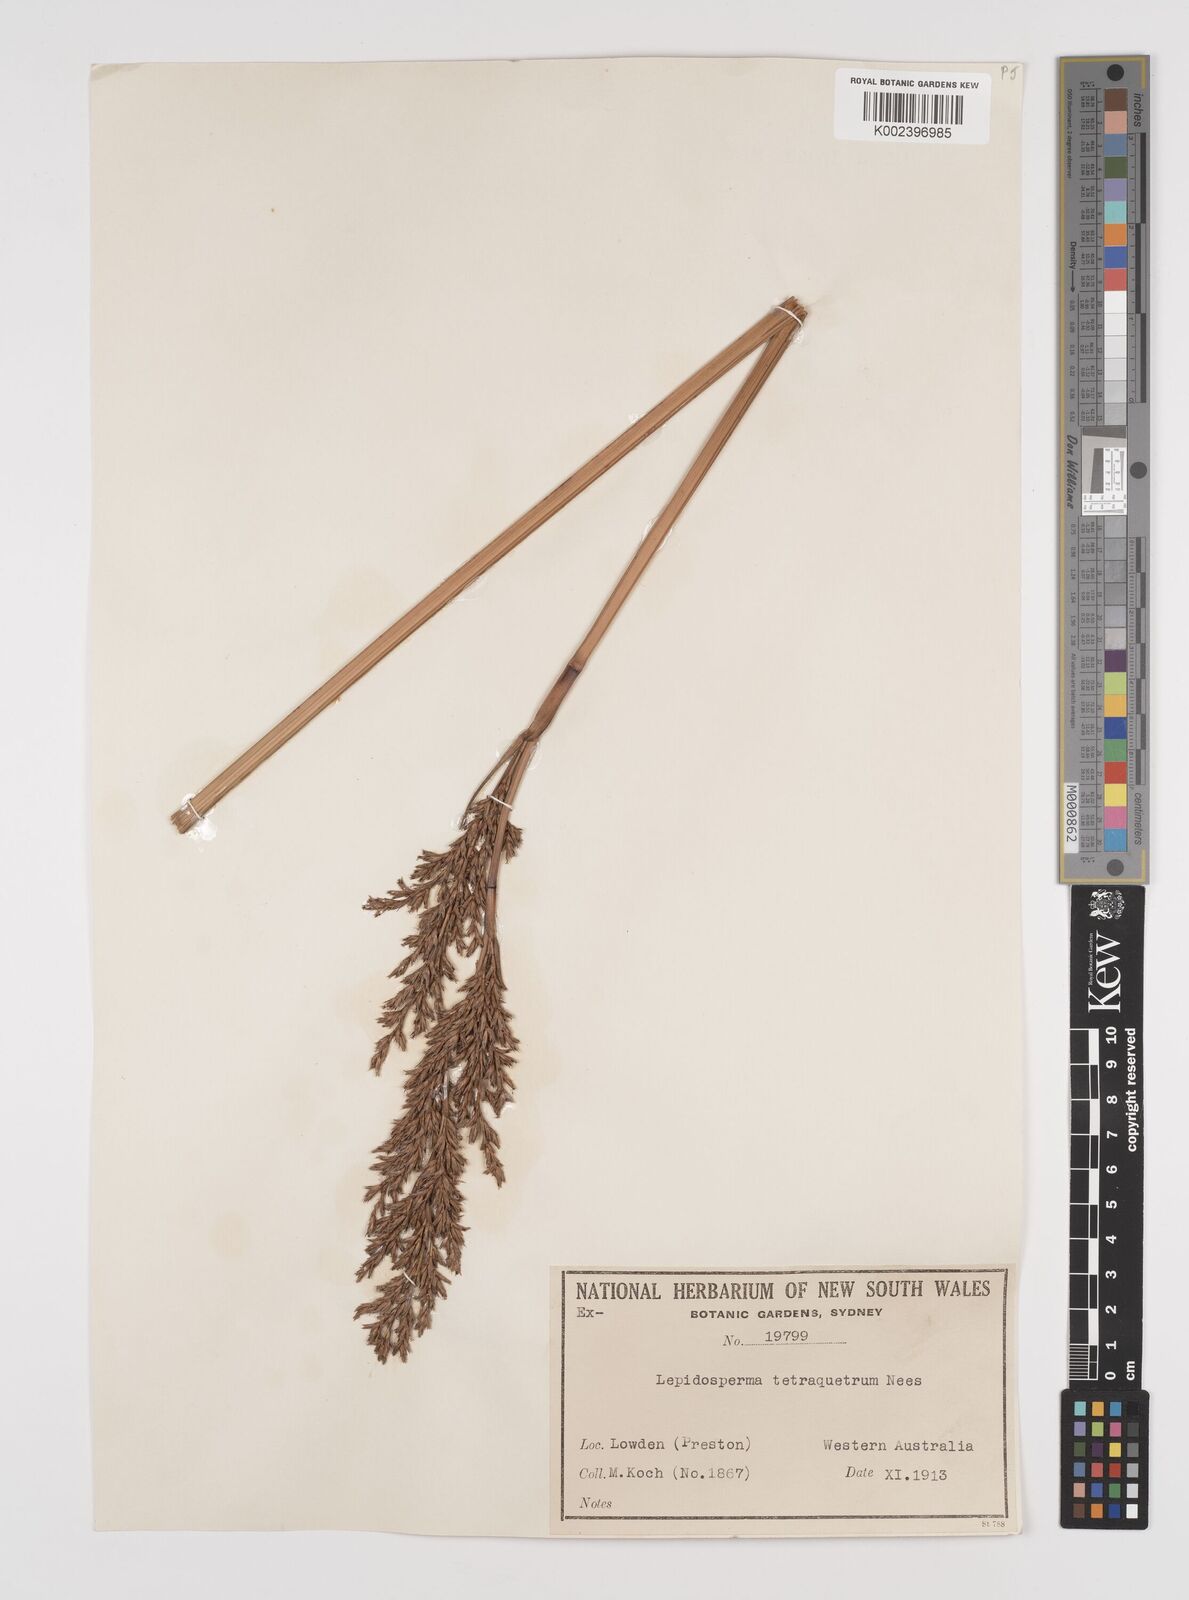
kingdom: Plantae
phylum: Tracheophyta
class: Liliopsida
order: Poales
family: Cyperaceae
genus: Lepidosperma
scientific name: Lepidosperma tetraquetrum
